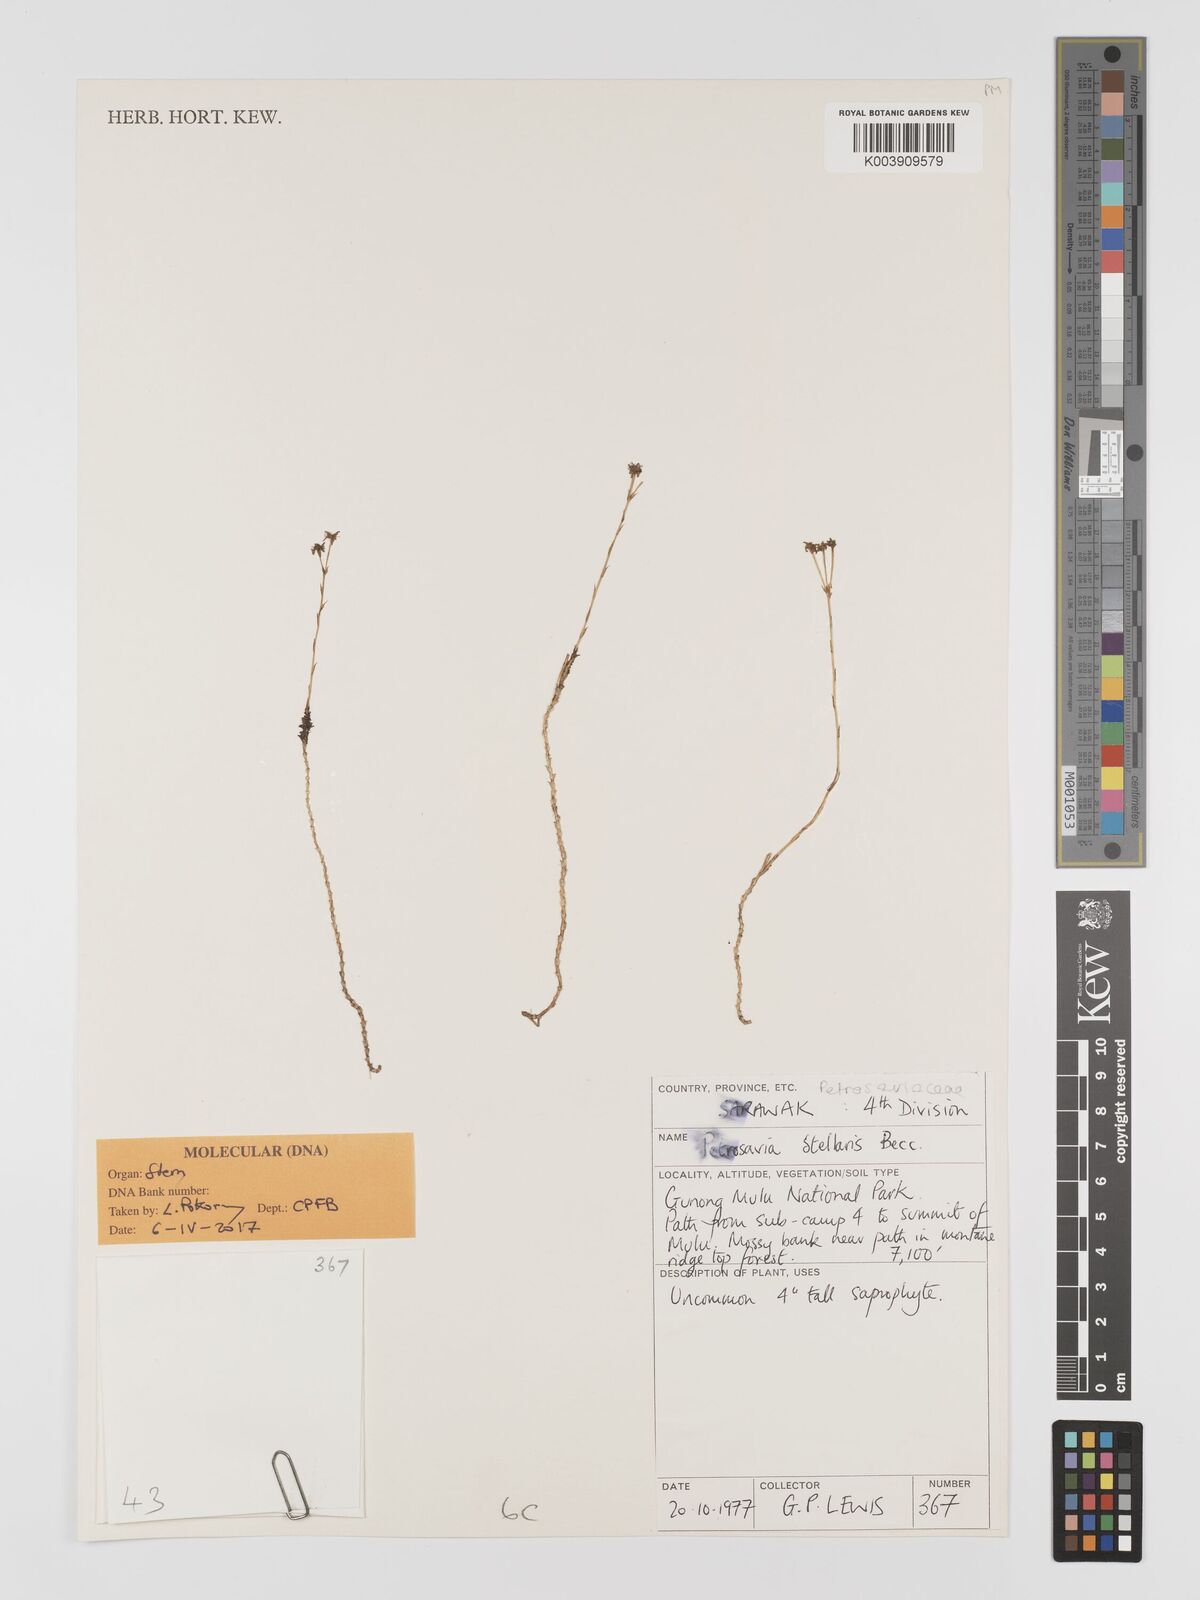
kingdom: Plantae
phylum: Tracheophyta
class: Liliopsida
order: Petrosaviales
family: Petrosaviaceae
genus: Petrosavia
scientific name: Petrosavia stellaris
